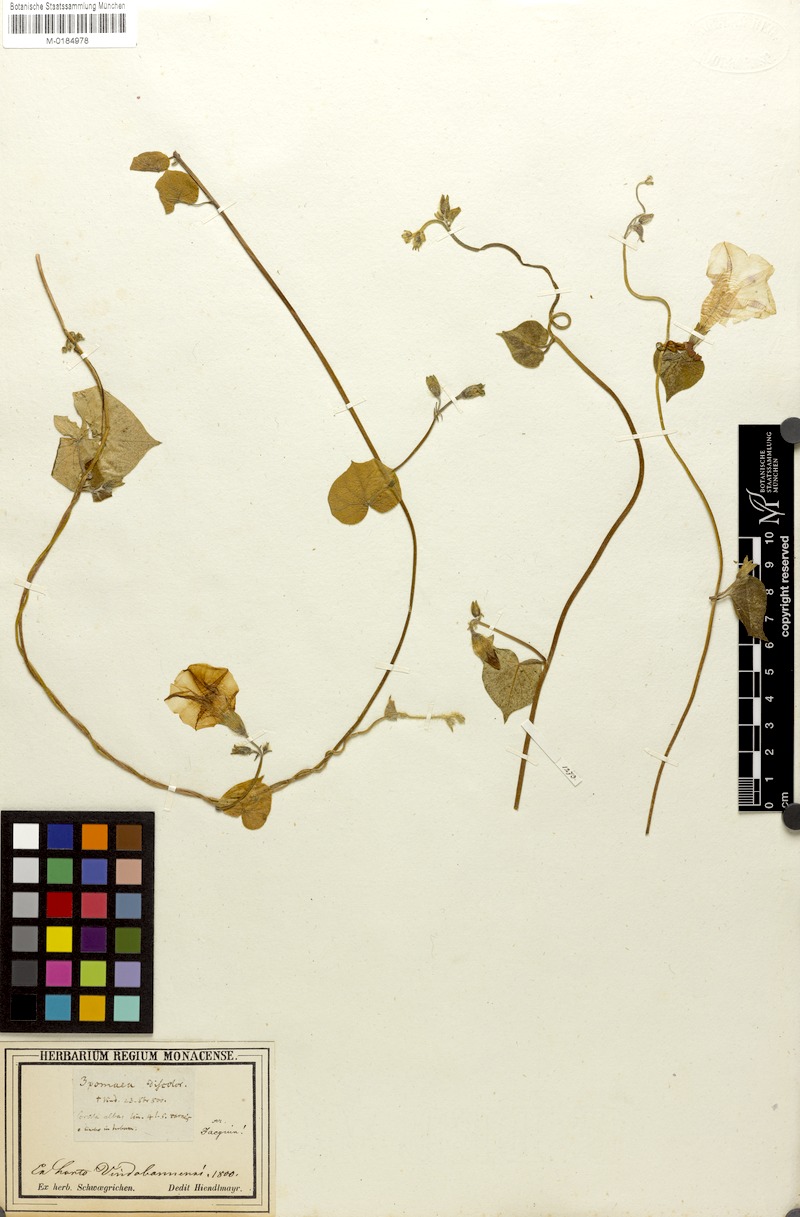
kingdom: Plantae
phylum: Tracheophyta
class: Magnoliopsida
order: Solanales
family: Convolvulaceae
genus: Ipomoea
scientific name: Ipomoea purpurea
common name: Common morning-glory
